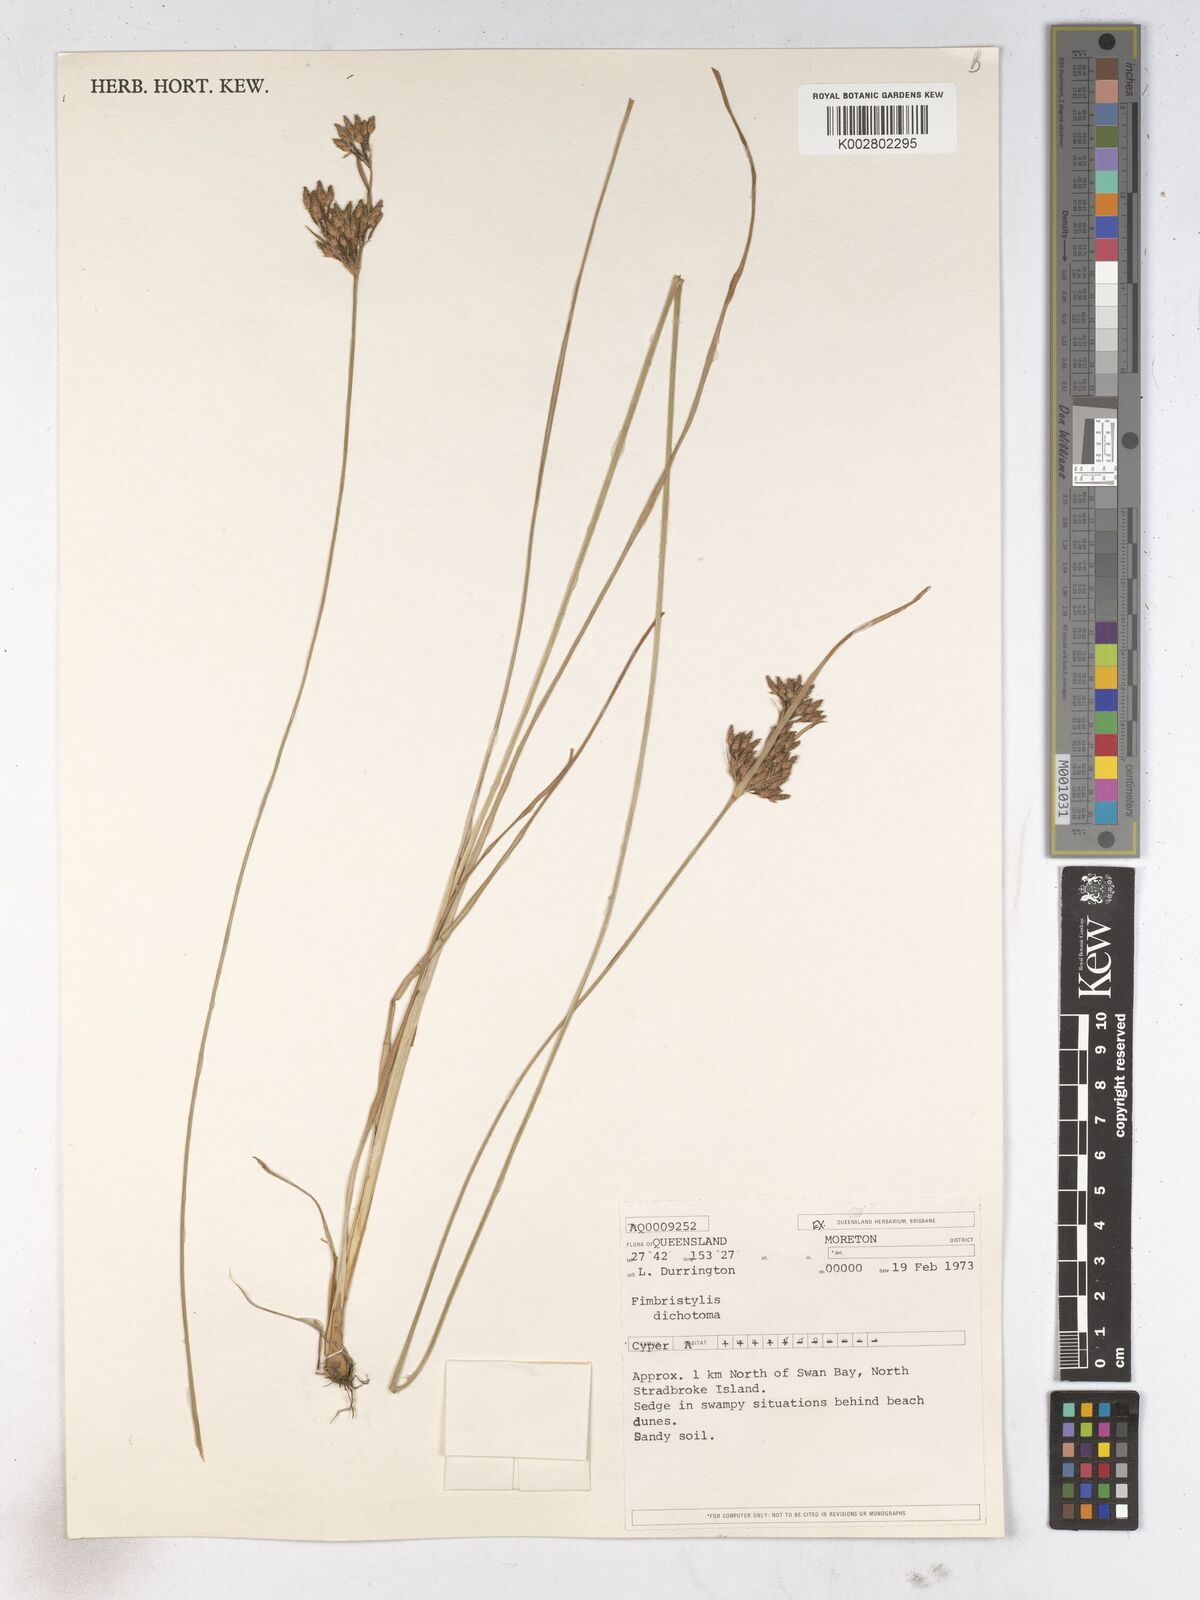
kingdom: Plantae
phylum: Tracheophyta
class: Liliopsida
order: Poales
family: Cyperaceae
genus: Fimbristylis
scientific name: Fimbristylis dichotoma
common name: Forked fimbry
